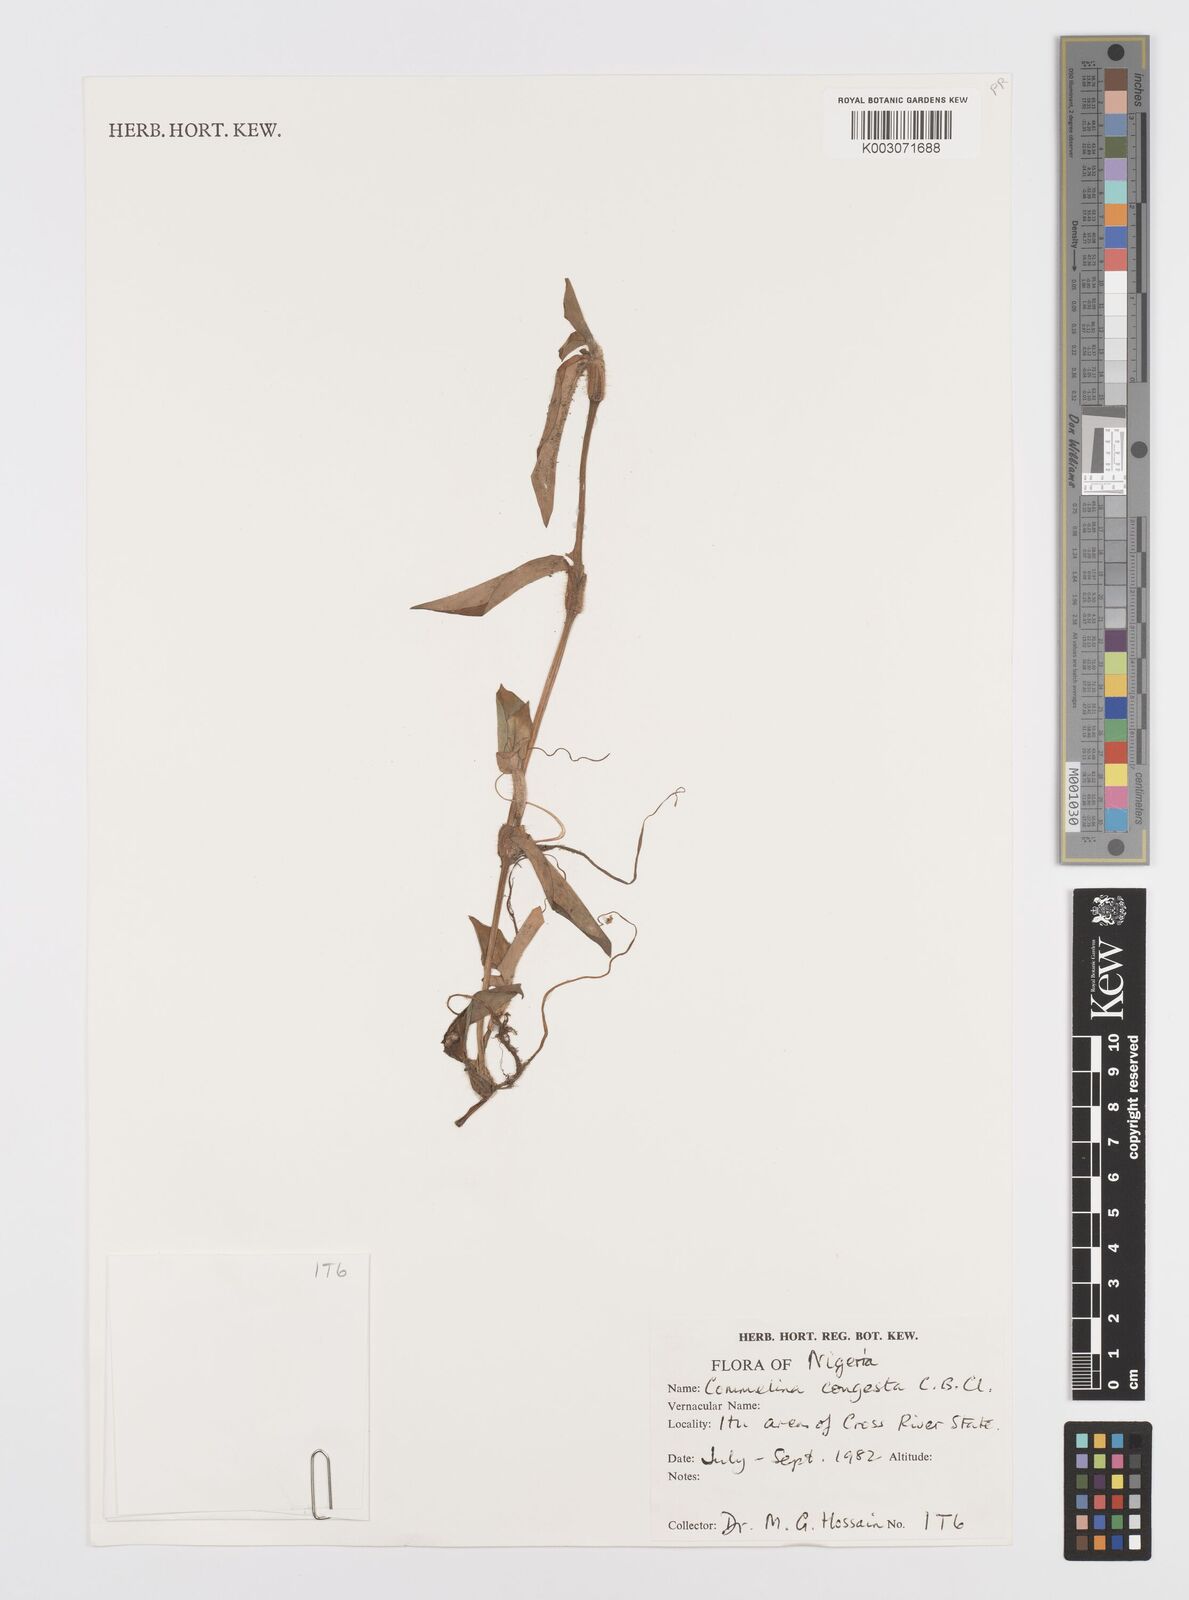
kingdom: Plantae
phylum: Tracheophyta
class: Liliopsida
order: Commelinales
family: Commelinaceae
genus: Commelina
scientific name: Commelina congesta
